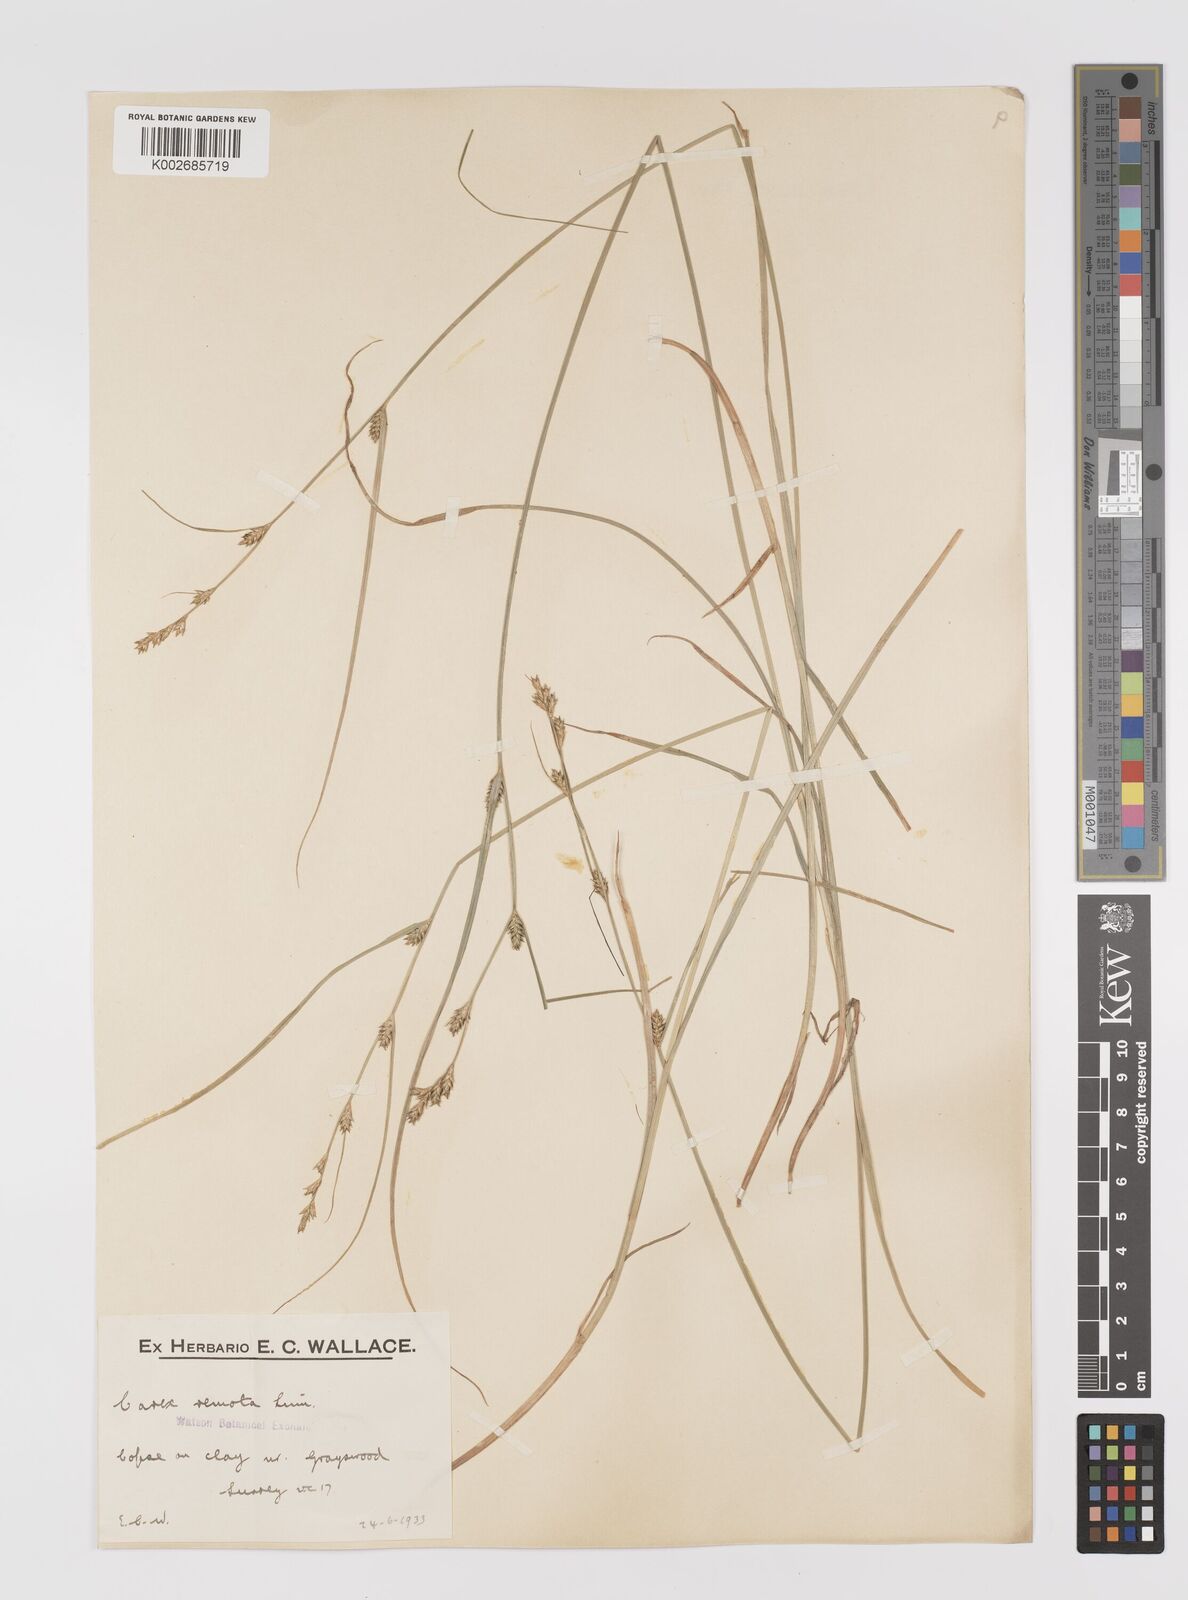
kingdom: Plantae
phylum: Tracheophyta
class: Liliopsida
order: Poales
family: Cyperaceae
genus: Carex
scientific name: Carex remota
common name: Remote sedge
